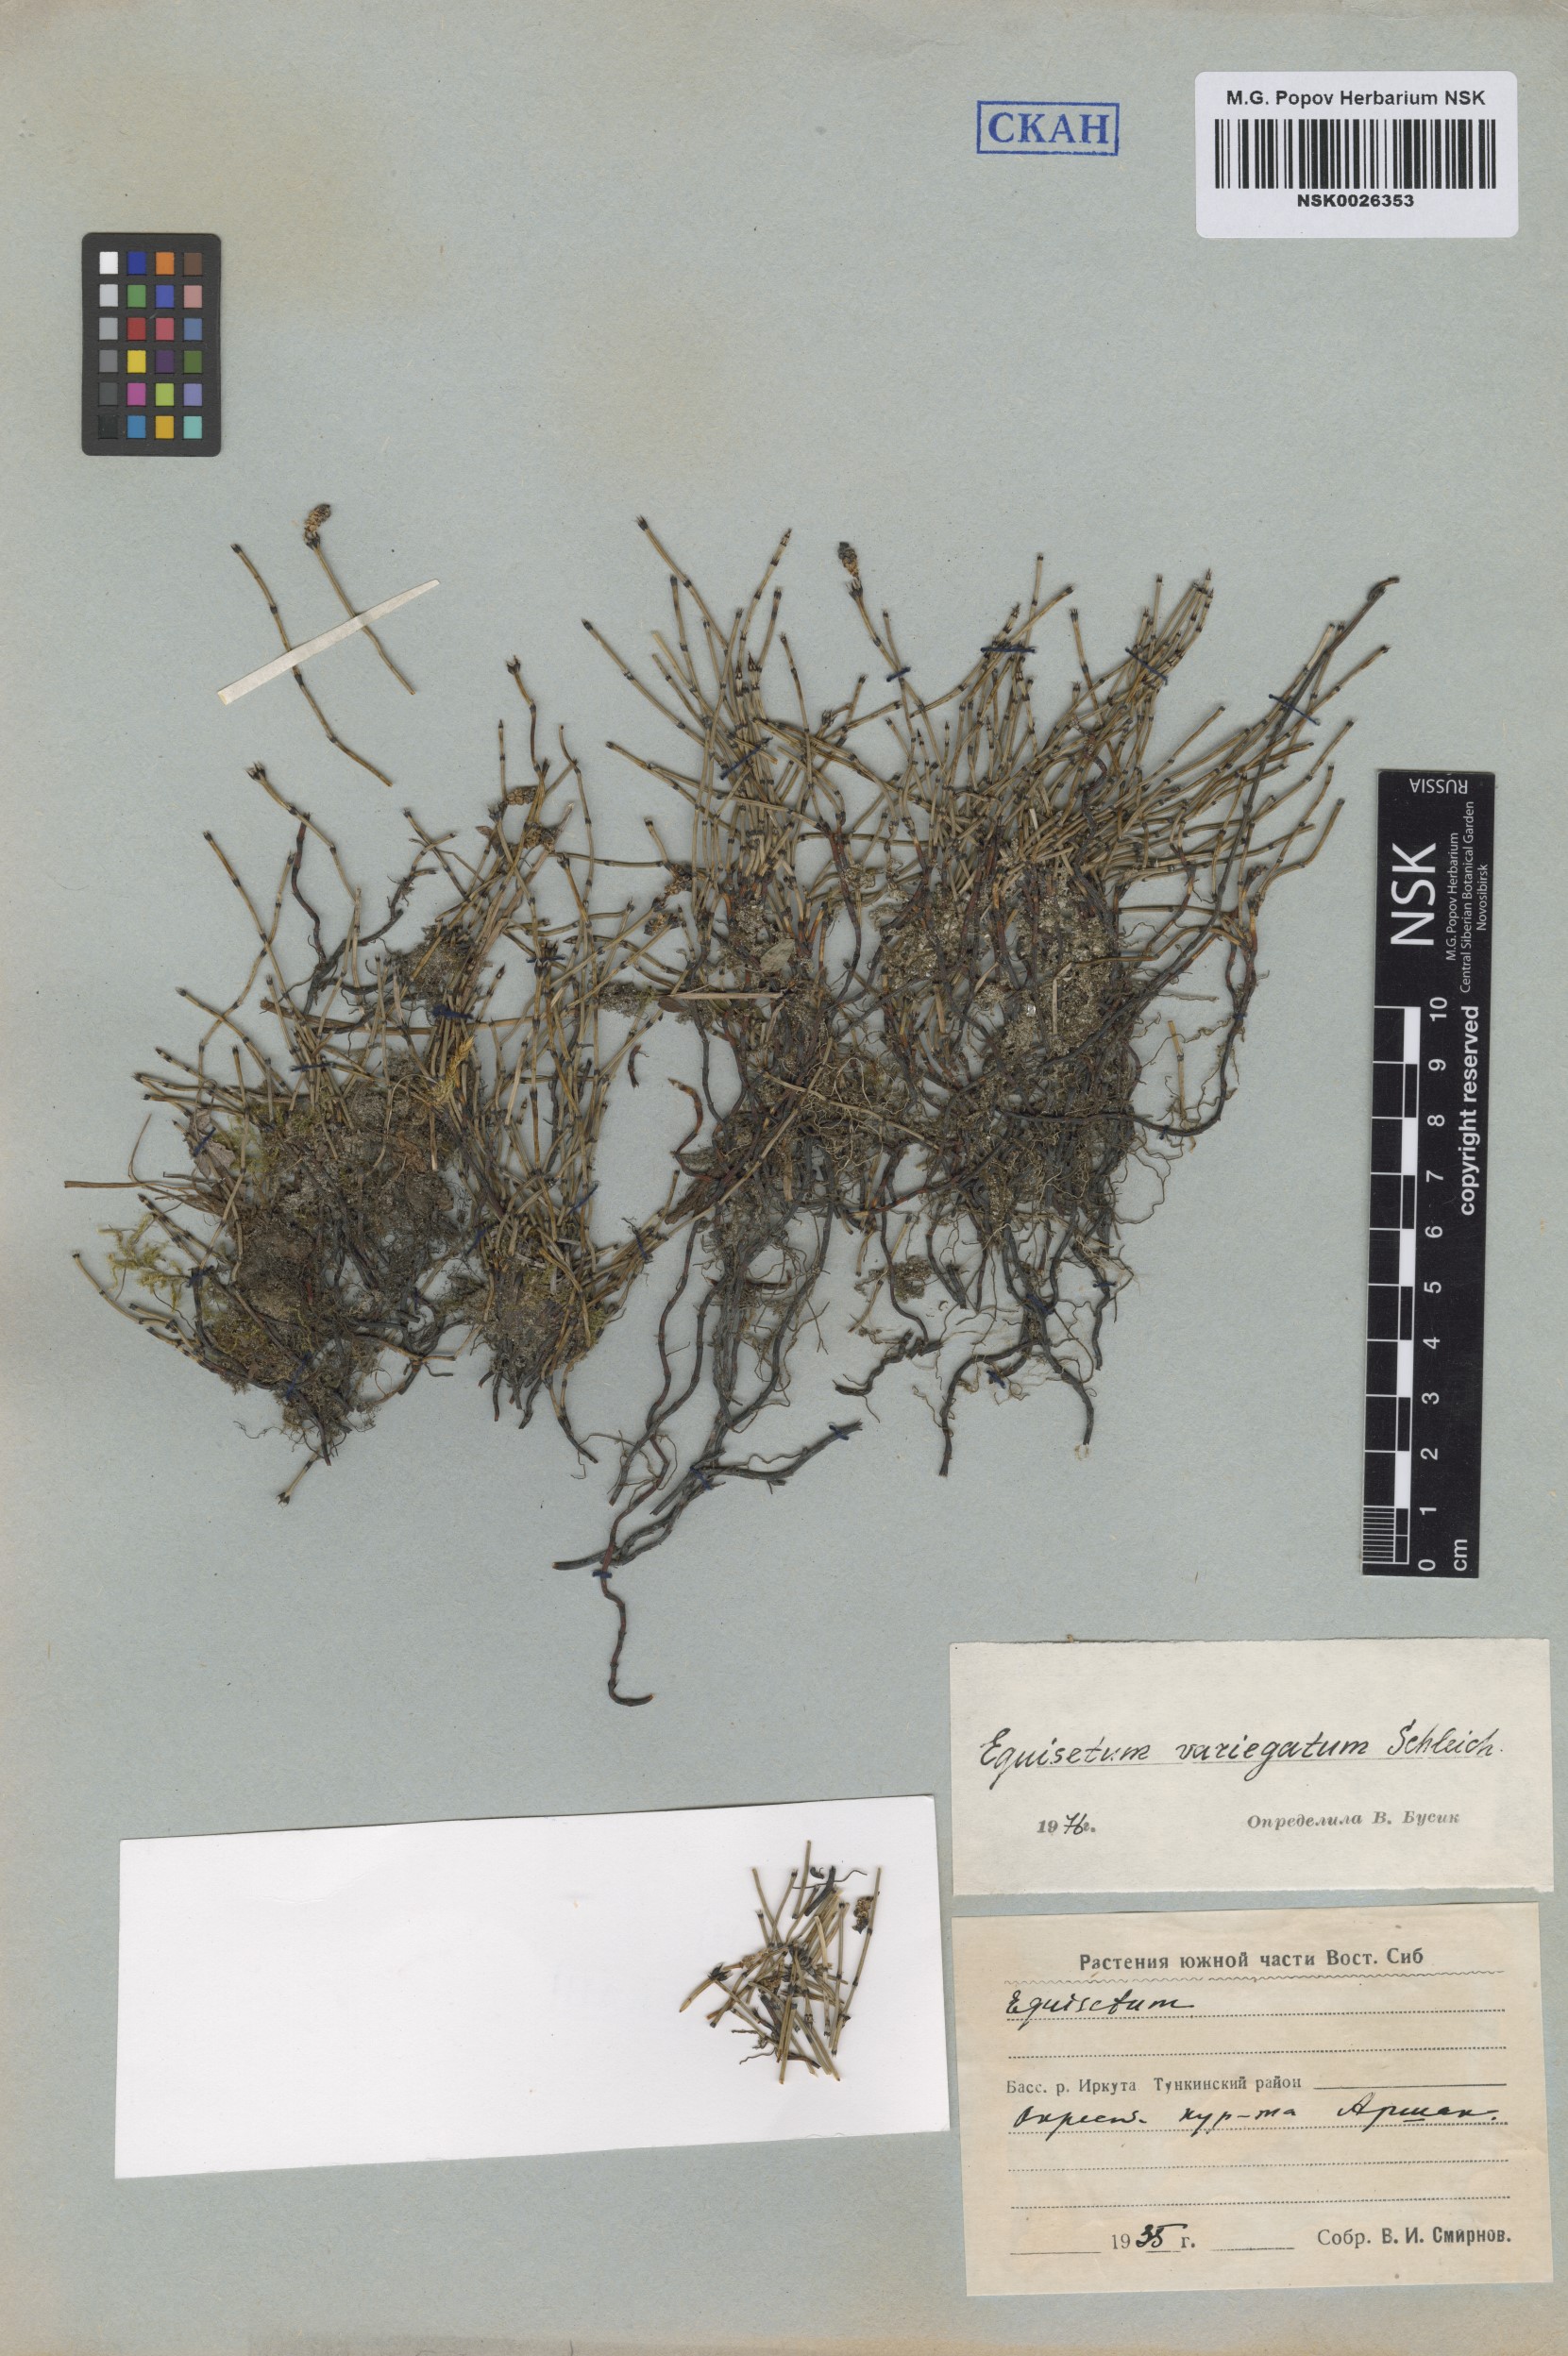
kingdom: Plantae
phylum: Tracheophyta
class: Polypodiopsida
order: Equisetales
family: Equisetaceae
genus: Equisetum
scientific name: Equisetum variegatum
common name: Variegated horsetail
